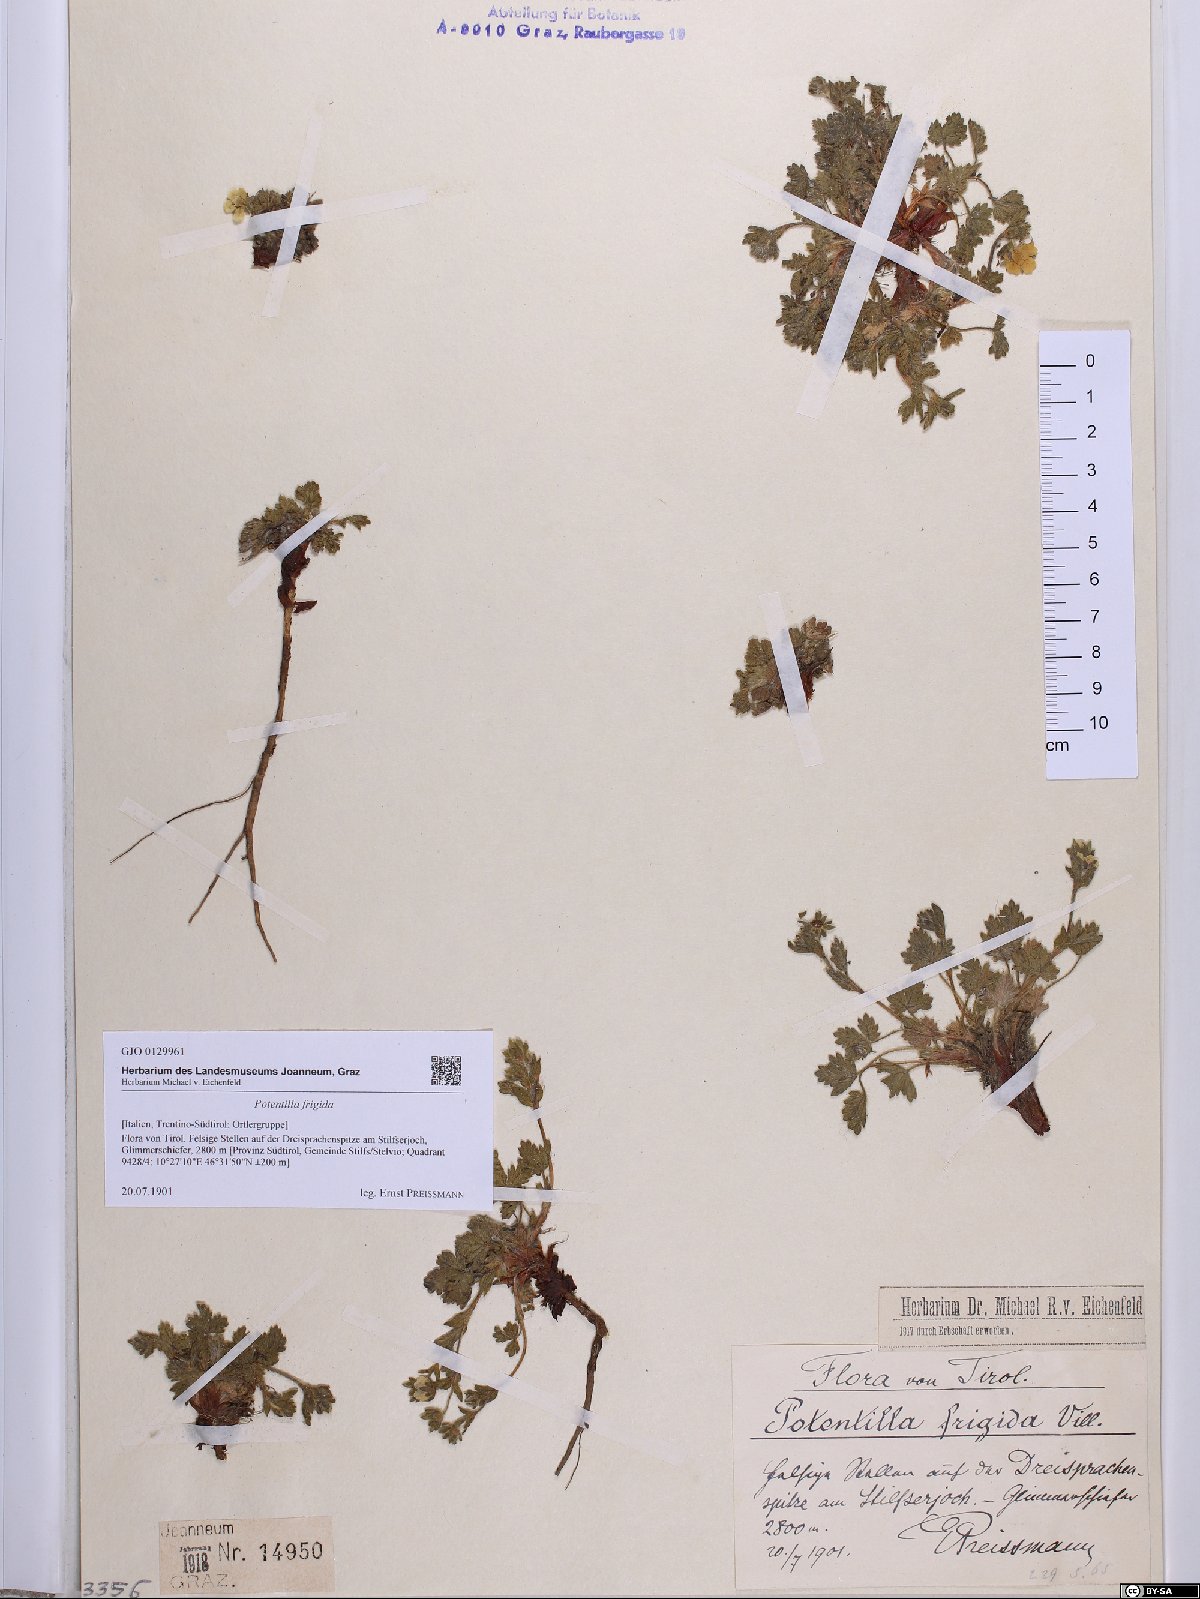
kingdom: Plantae
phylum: Tracheophyta
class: Magnoliopsida
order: Rosales
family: Rosaceae
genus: Potentilla
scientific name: Potentilla frigida
